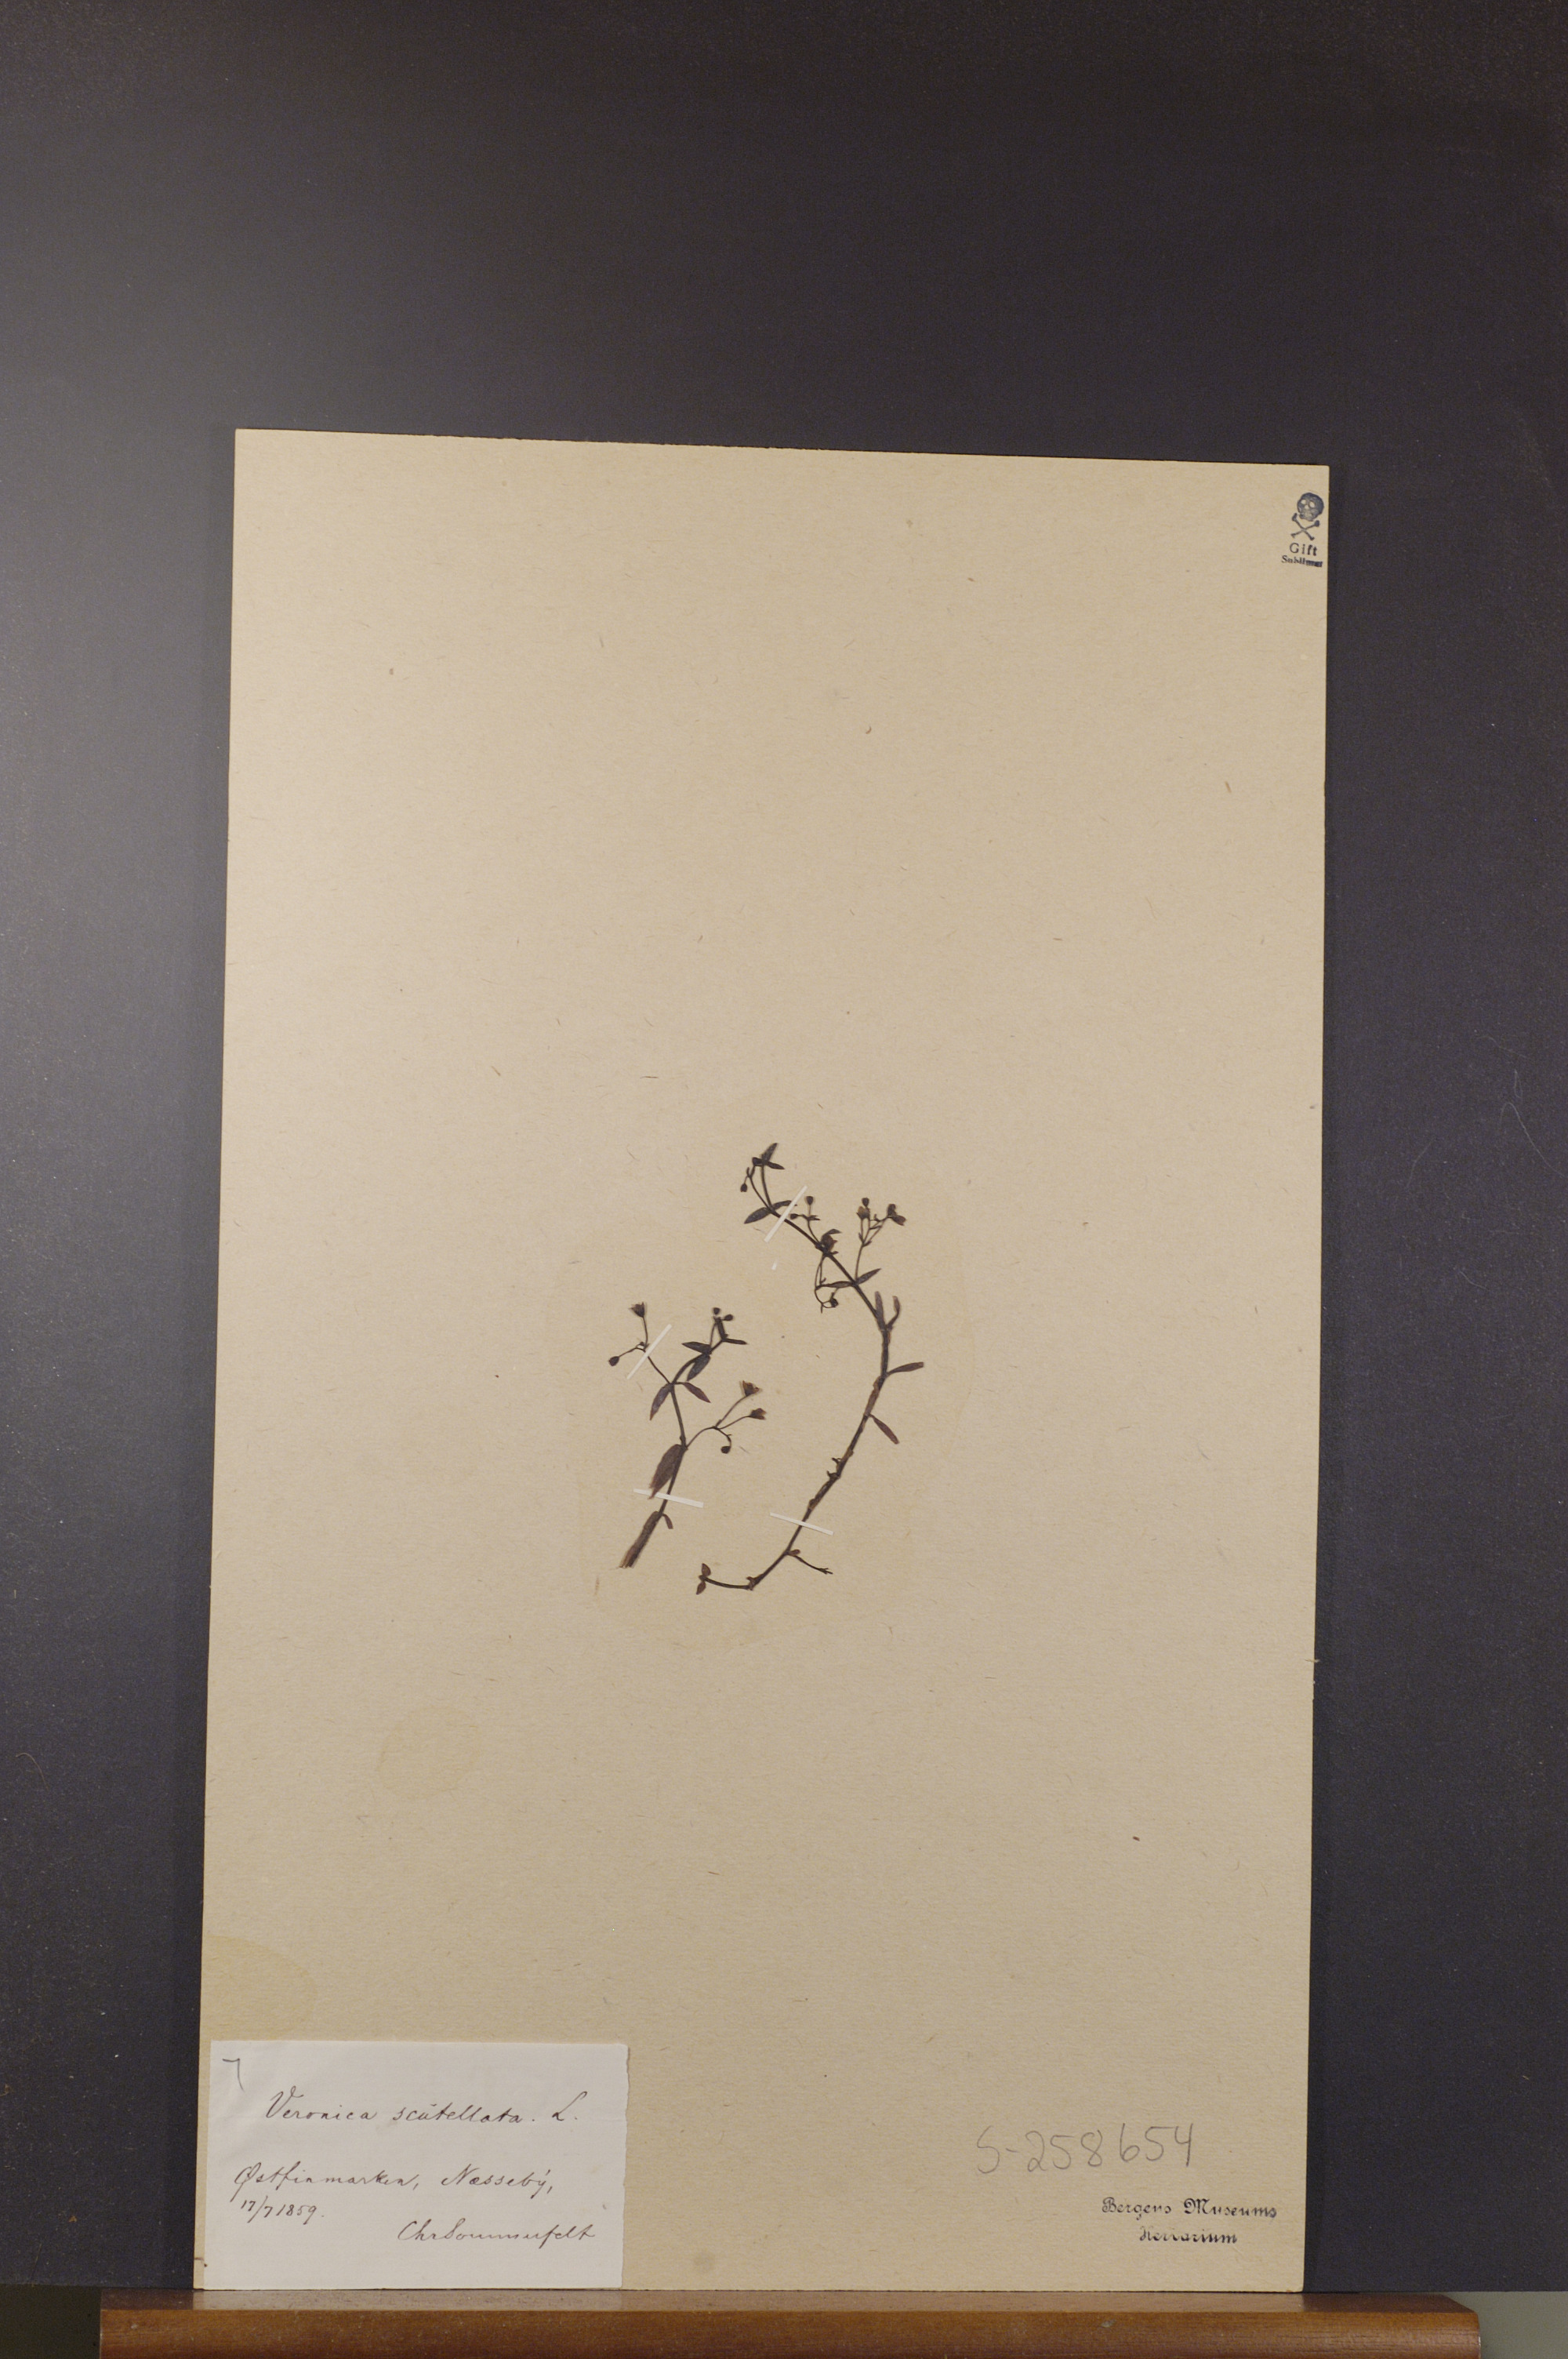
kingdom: Plantae
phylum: Tracheophyta
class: Magnoliopsida
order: Lamiales
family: Plantaginaceae
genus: Veronica
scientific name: Veronica scutellata
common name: Marsh speedwell
